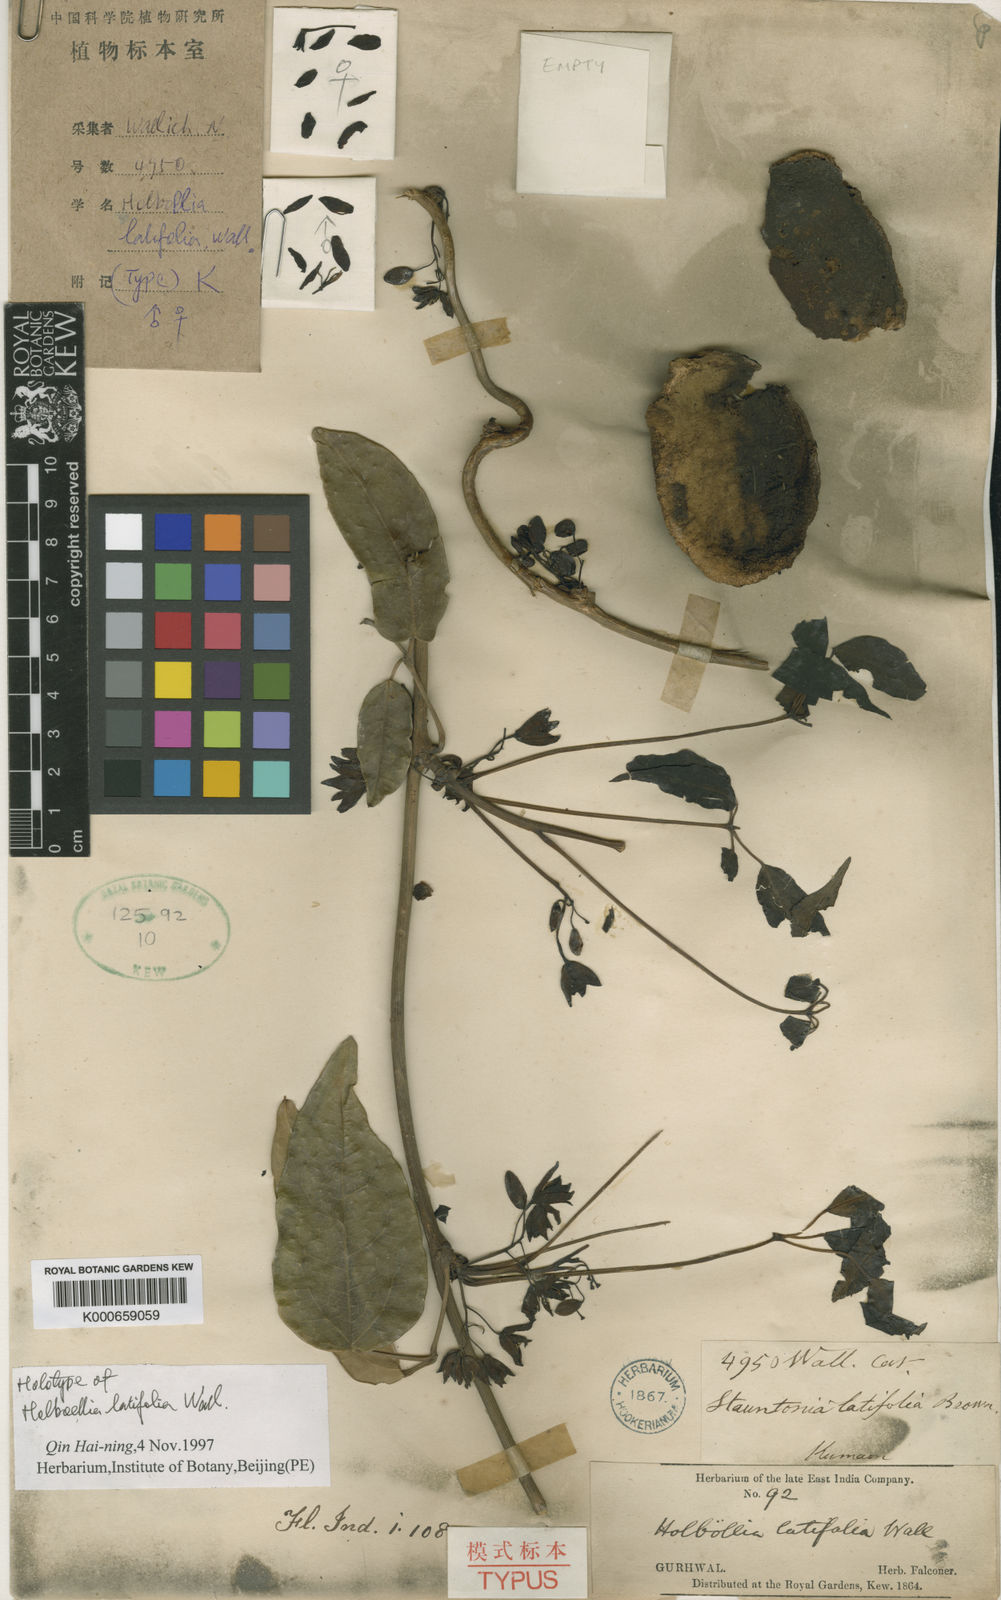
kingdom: Plantae
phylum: Tracheophyta
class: Magnoliopsida
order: Ranunculales
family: Lardizabalaceae
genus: Stauntonia
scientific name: Stauntonia latifolia
